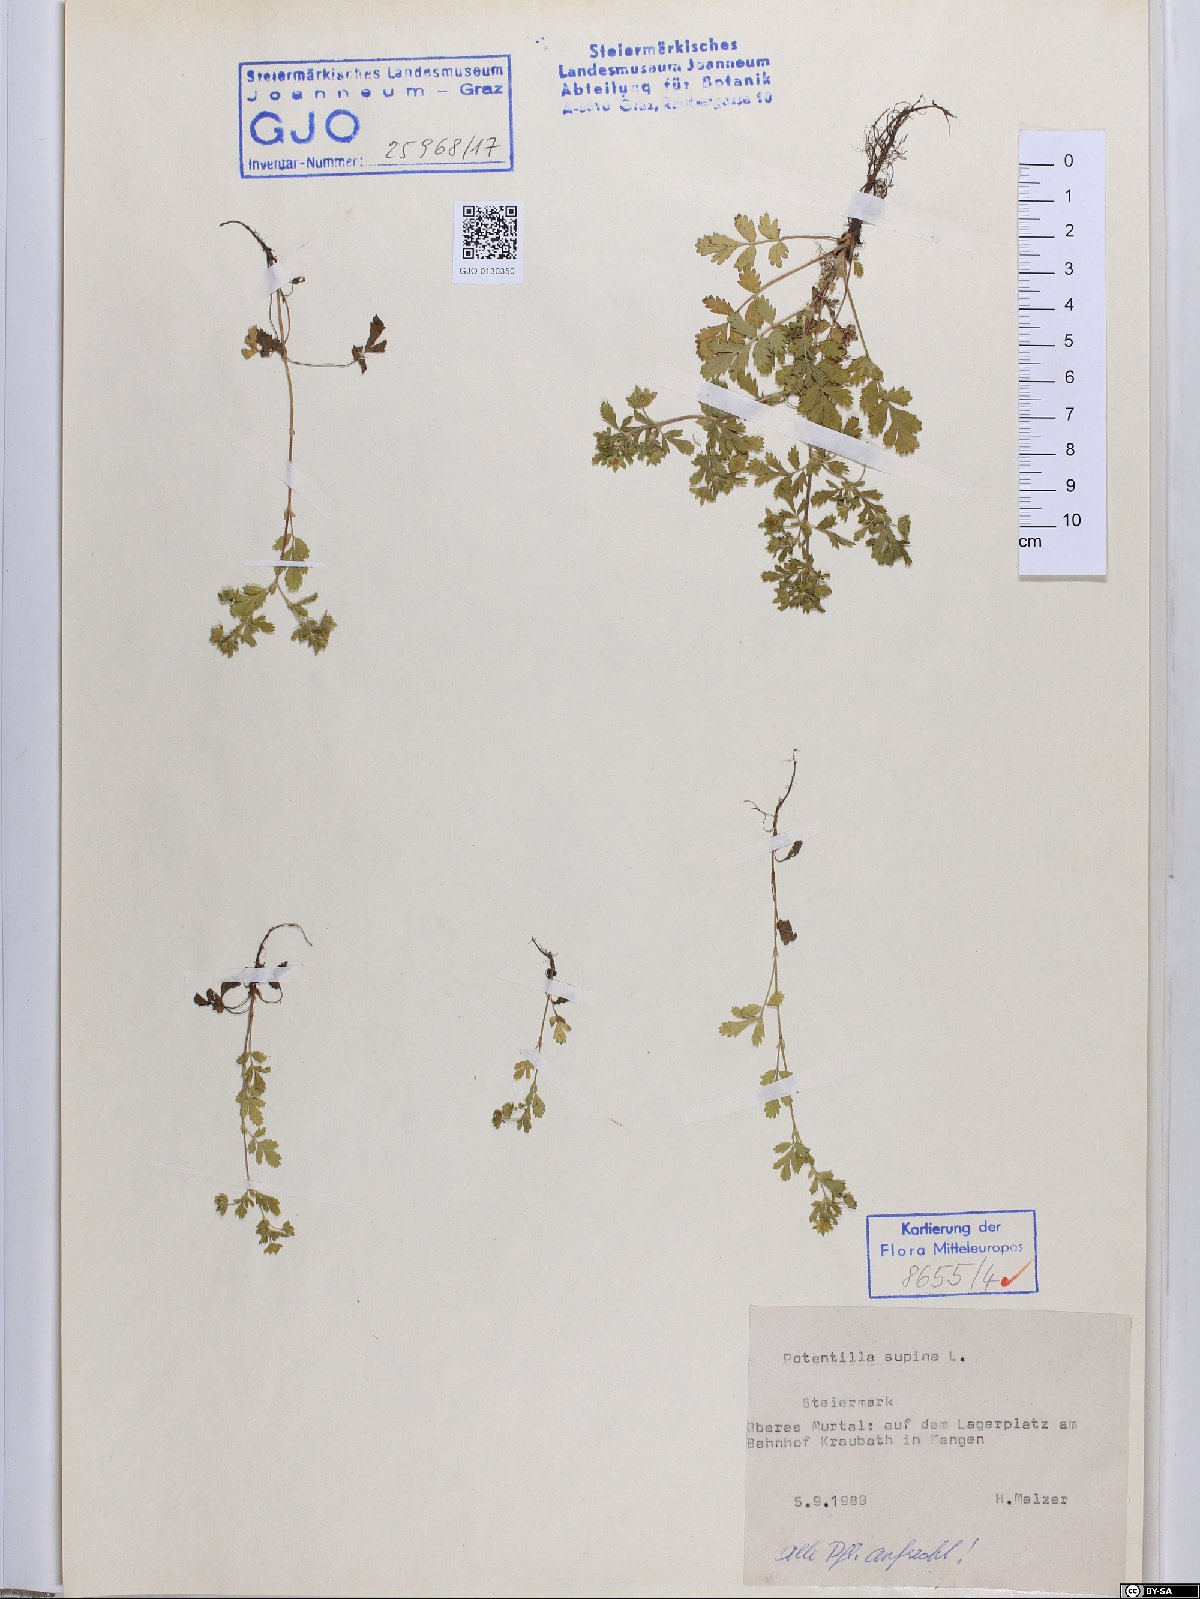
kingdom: Plantae
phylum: Tracheophyta
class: Magnoliopsida
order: Rosales
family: Rosaceae
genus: Potentilla
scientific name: Potentilla supina
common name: Prostrate cinquefoil
